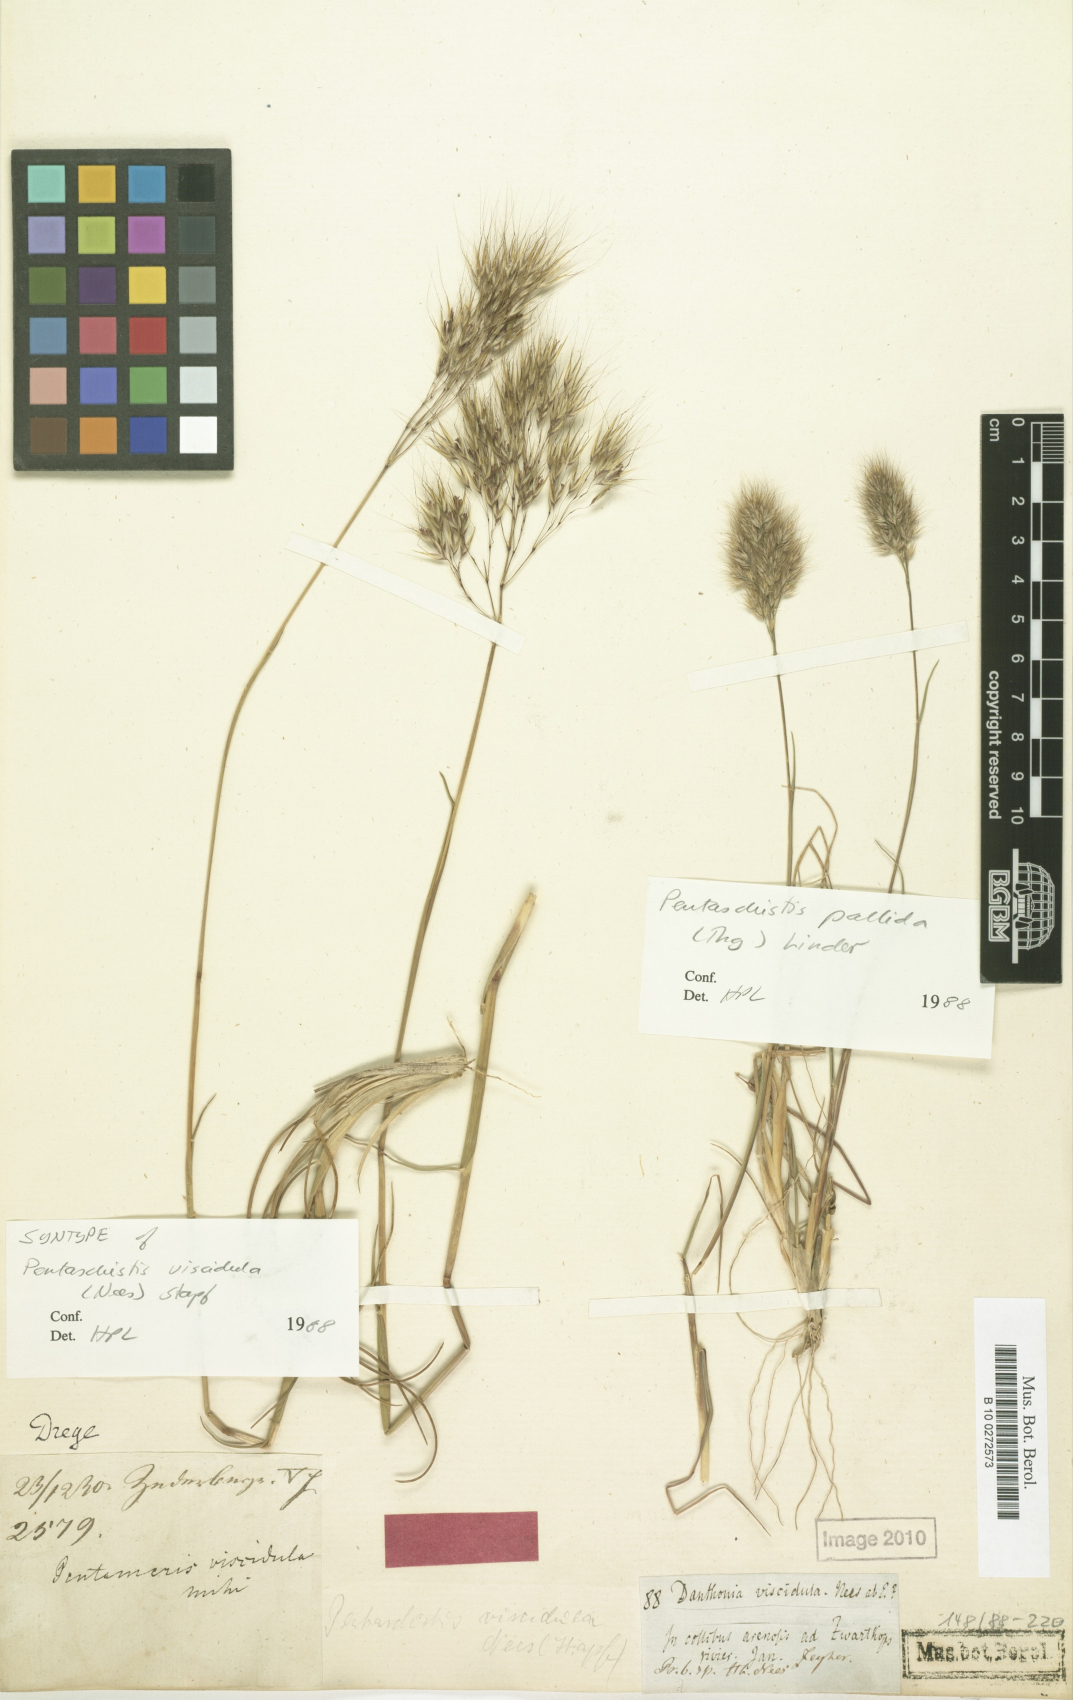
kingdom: Plantae
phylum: Tracheophyta
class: Liliopsida
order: Poales
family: Poaceae
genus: Pentameris
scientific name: Pentameris viscidula
